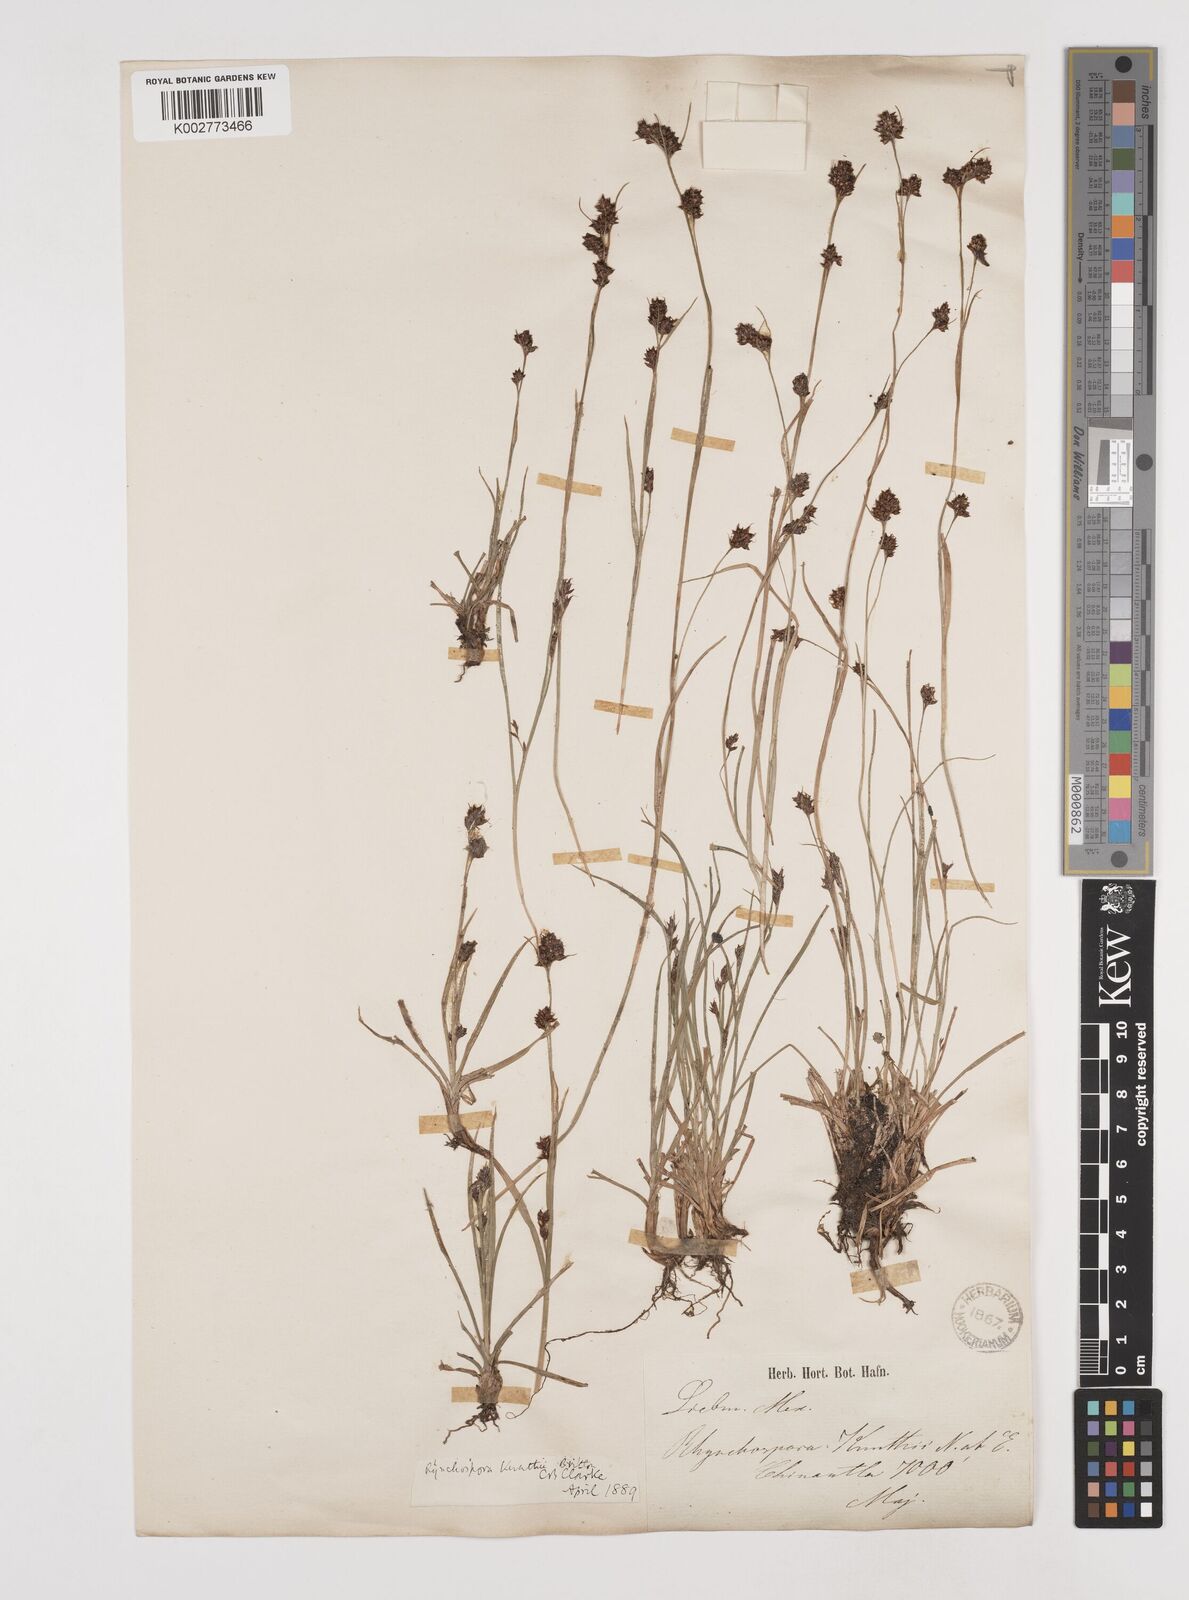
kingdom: Plantae
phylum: Tracheophyta
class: Liliopsida
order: Poales
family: Cyperaceae
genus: Rhynchospora
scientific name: Rhynchospora kunthii
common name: Kunth's beaksedge
